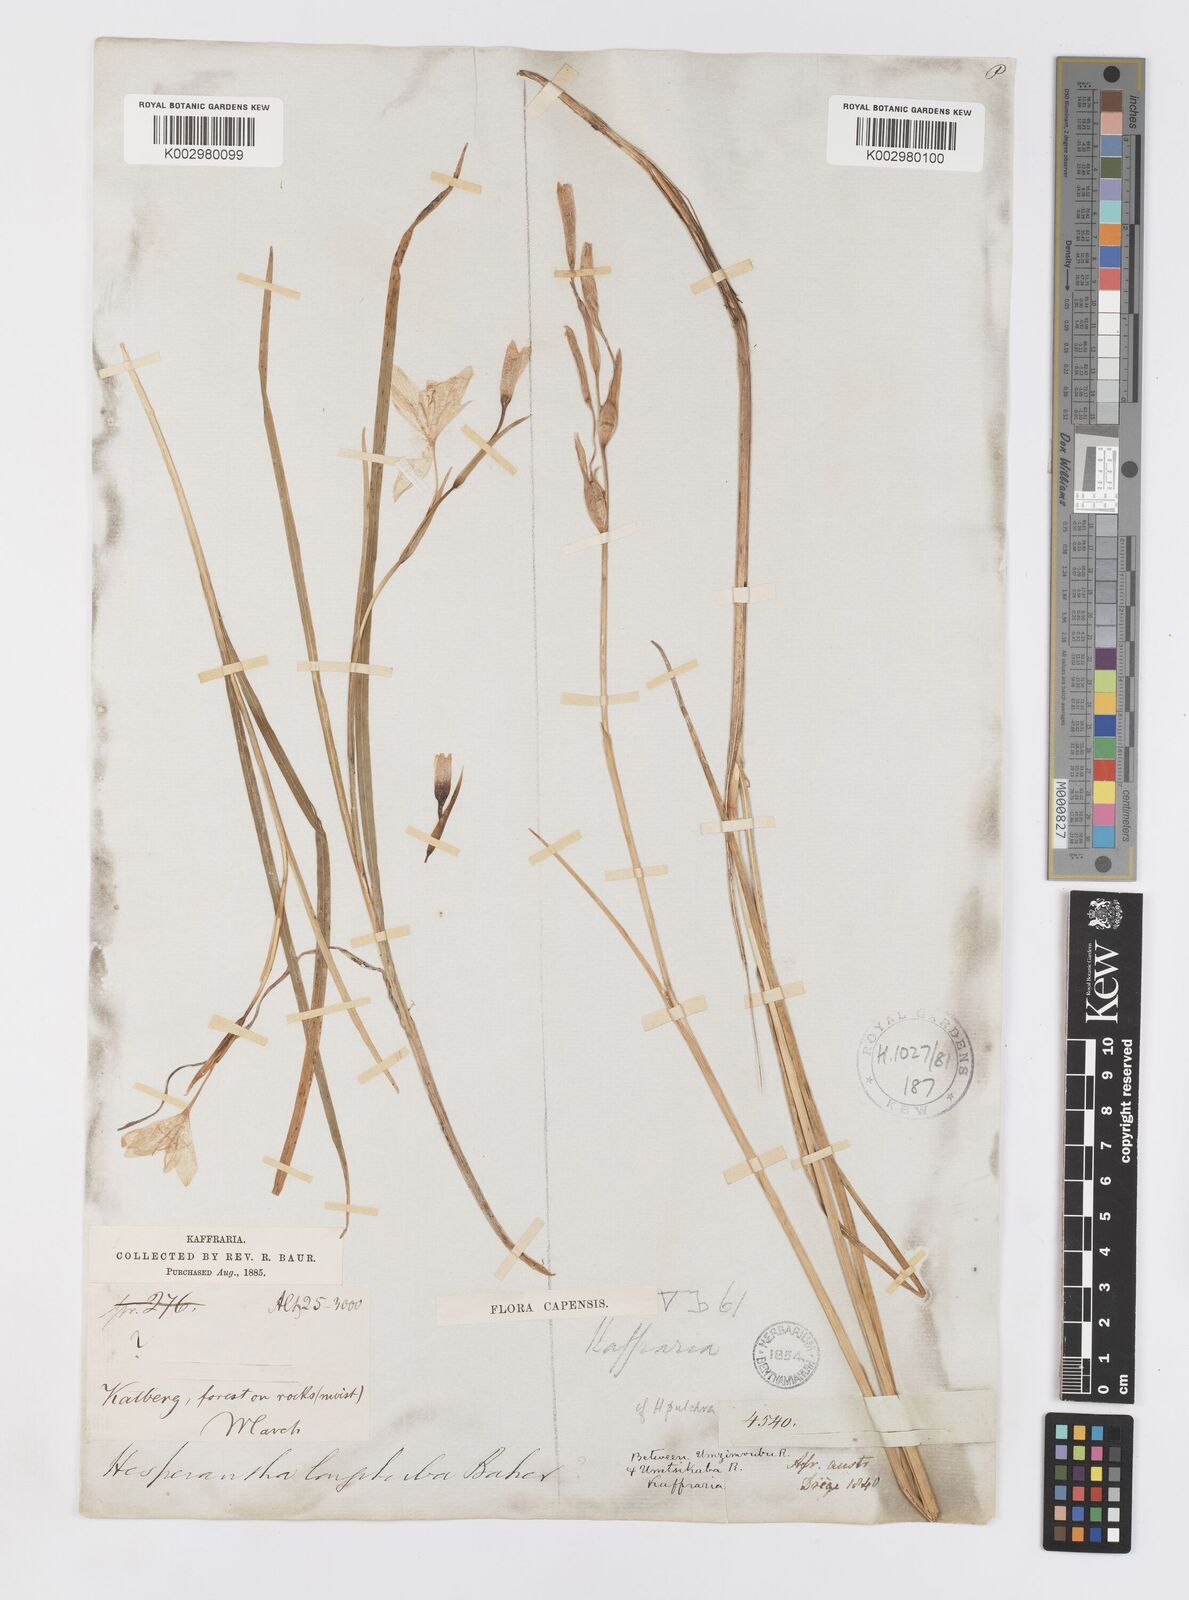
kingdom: Plantae
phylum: Tracheophyta
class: Liliopsida
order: Asparagales
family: Iridaceae
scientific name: Iridaceae
